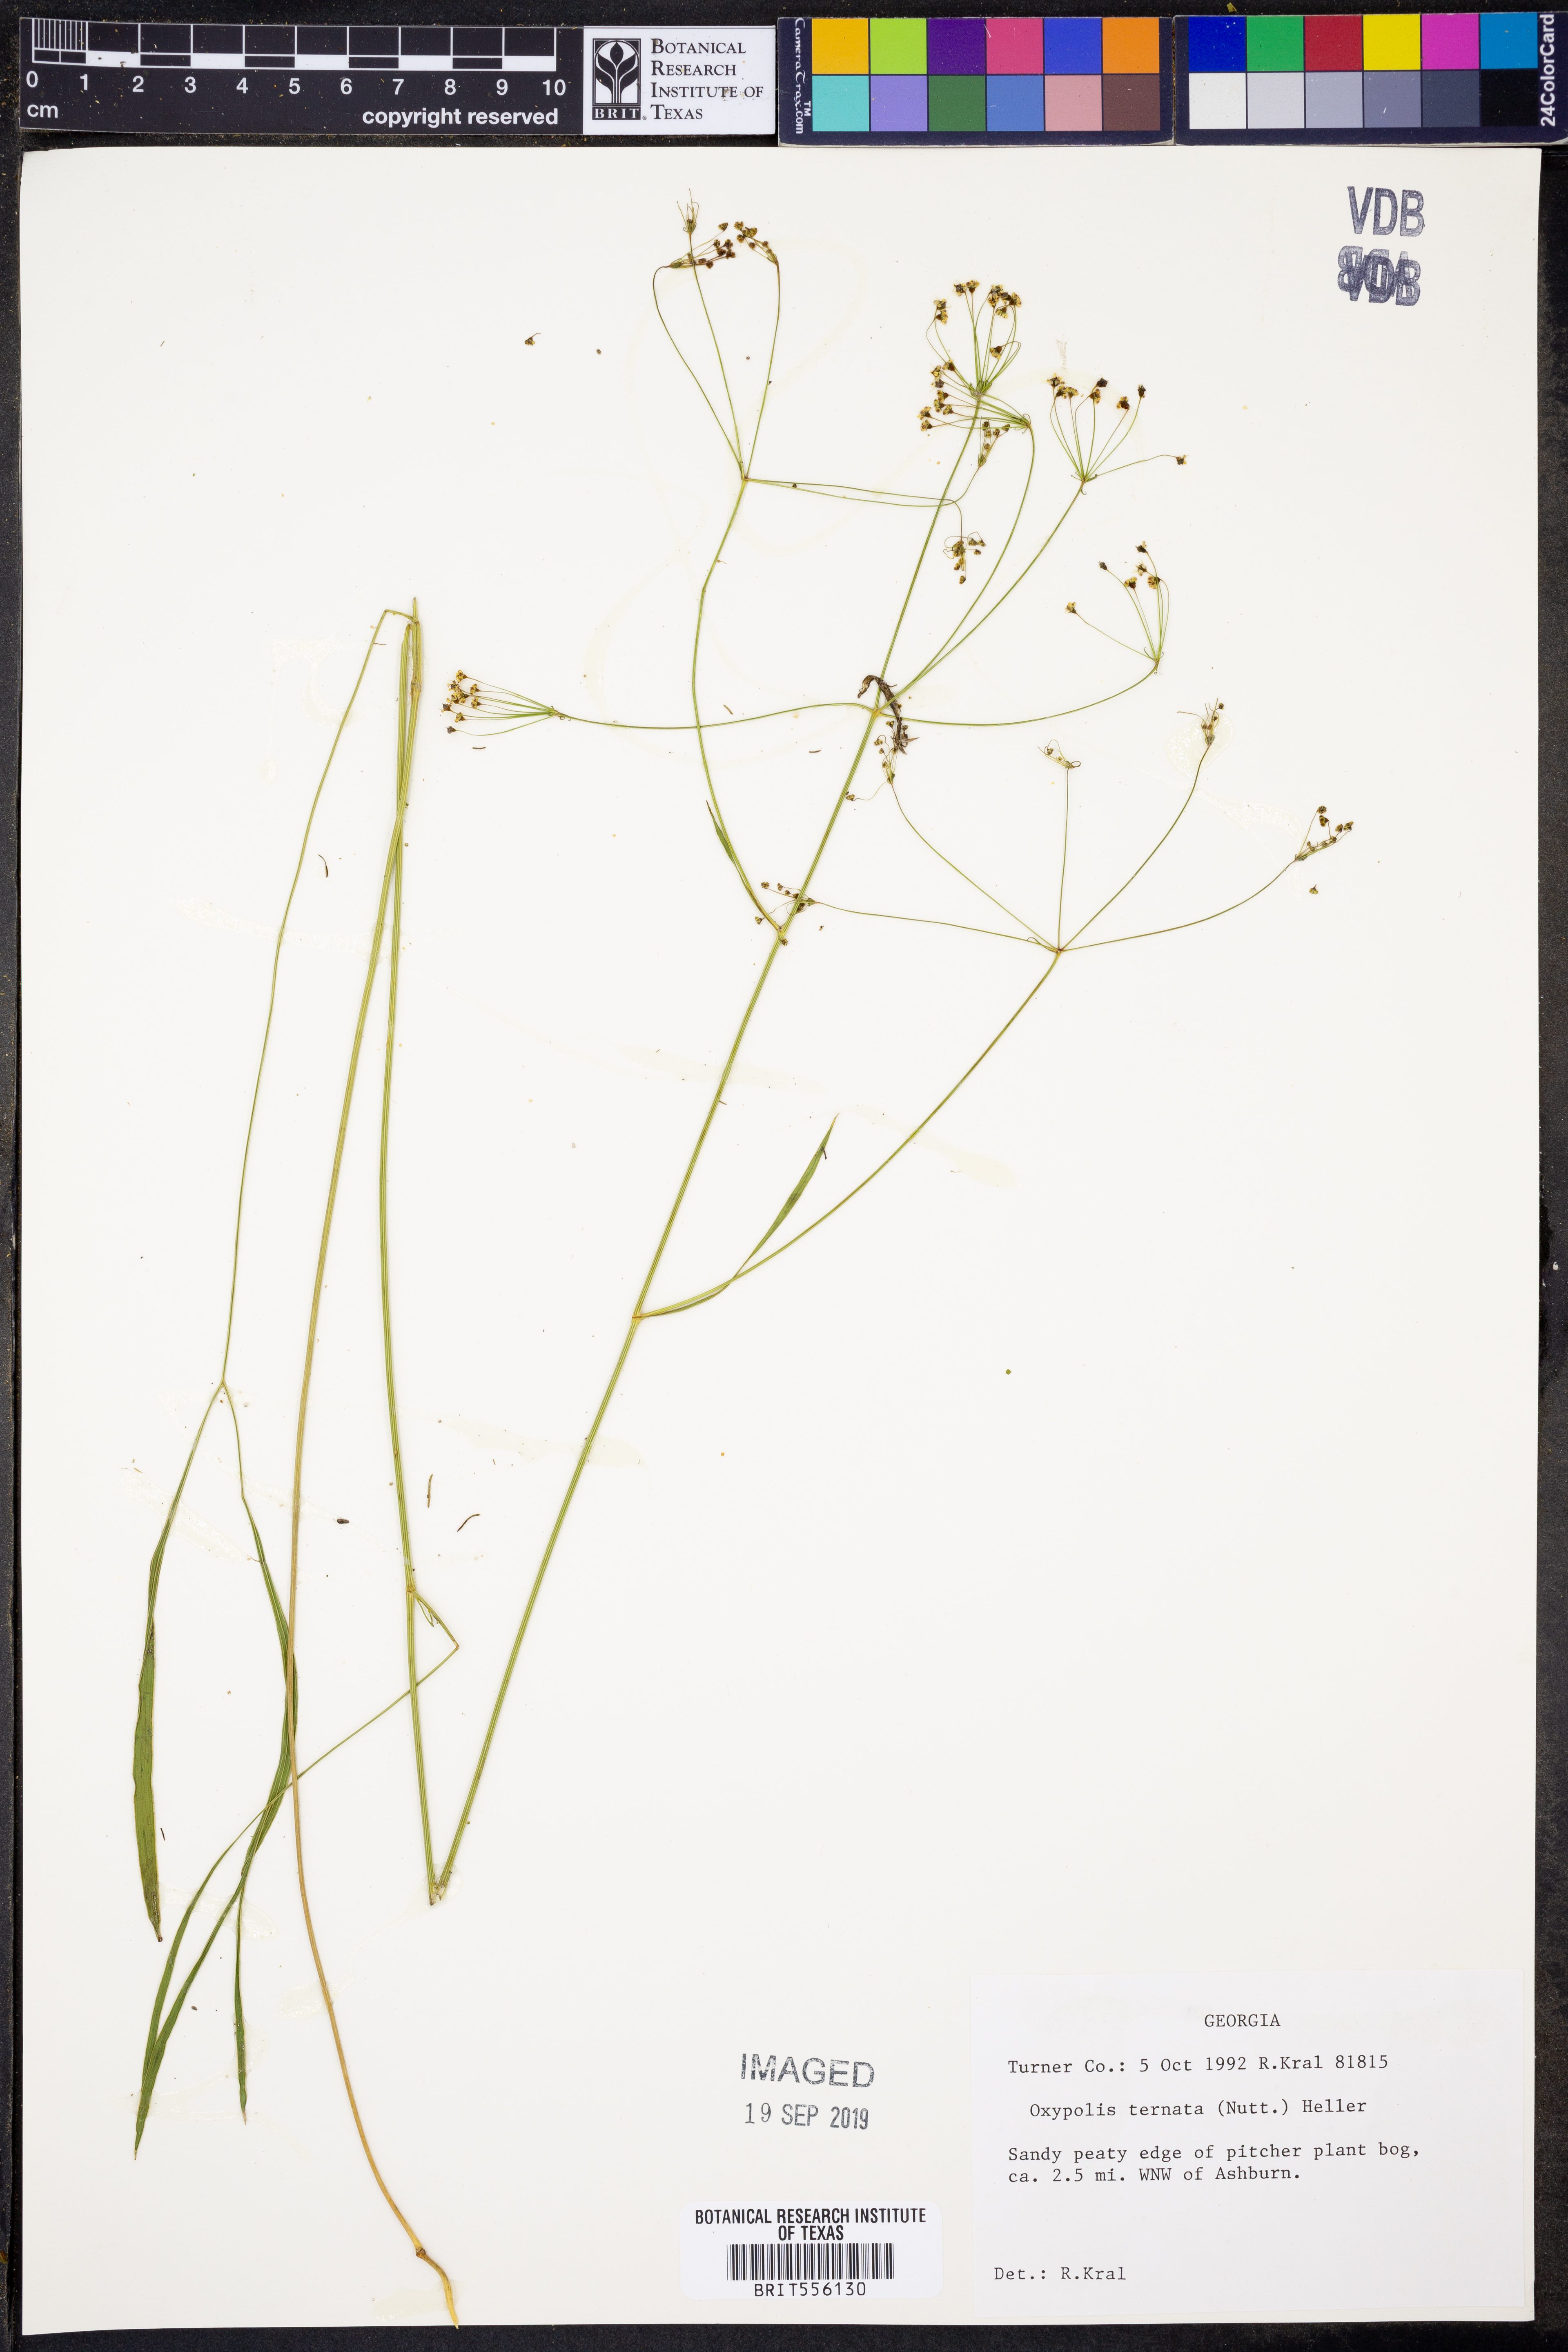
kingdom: Plantae
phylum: Tracheophyta
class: Magnoliopsida
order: Apiales
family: Apiaceae
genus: Oxypolis
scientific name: Oxypolis ternata
